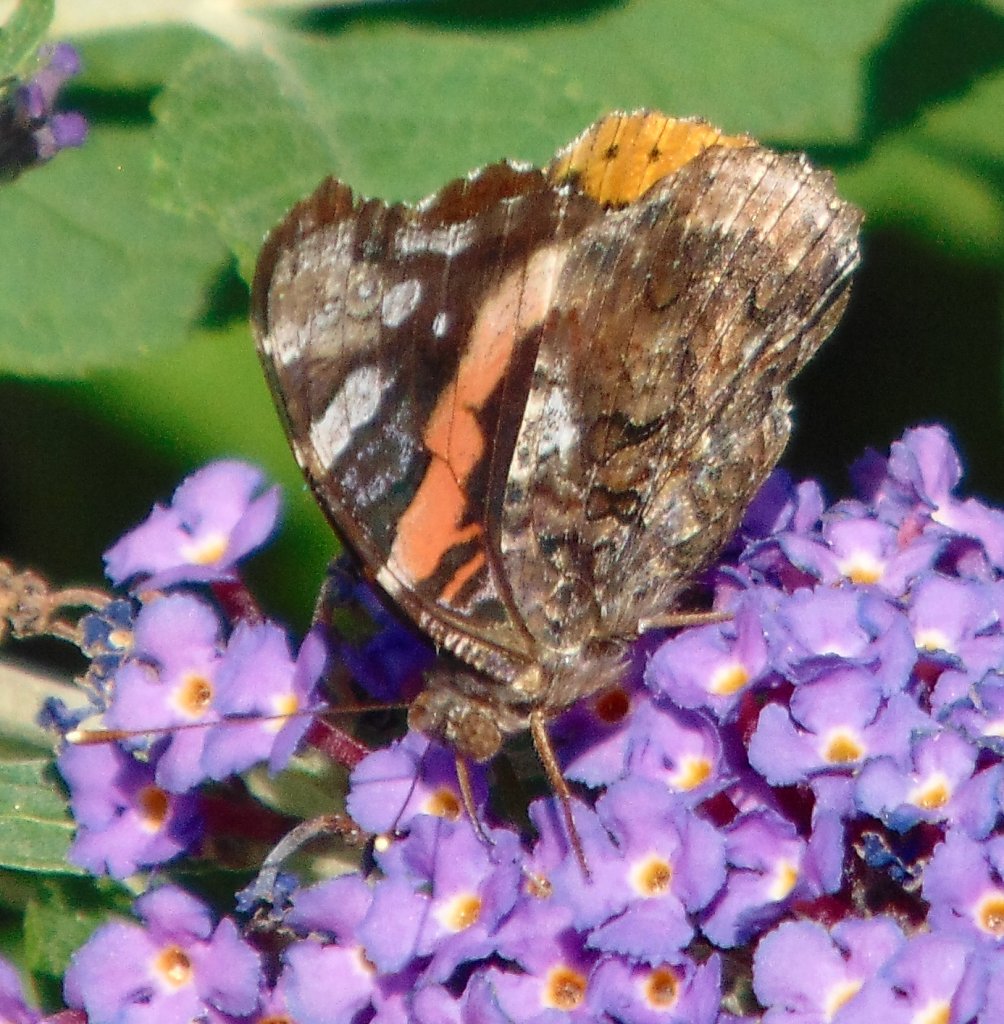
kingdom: Animalia
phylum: Arthropoda
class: Insecta
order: Lepidoptera
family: Nymphalidae
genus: Vanessa
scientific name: Vanessa atalanta
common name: Red Admiral
